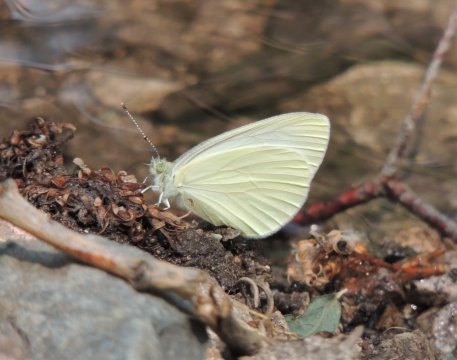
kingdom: Animalia
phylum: Arthropoda
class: Insecta
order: Lepidoptera
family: Pieridae
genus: Pieris
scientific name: Pieris marginalis
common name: Margined White
